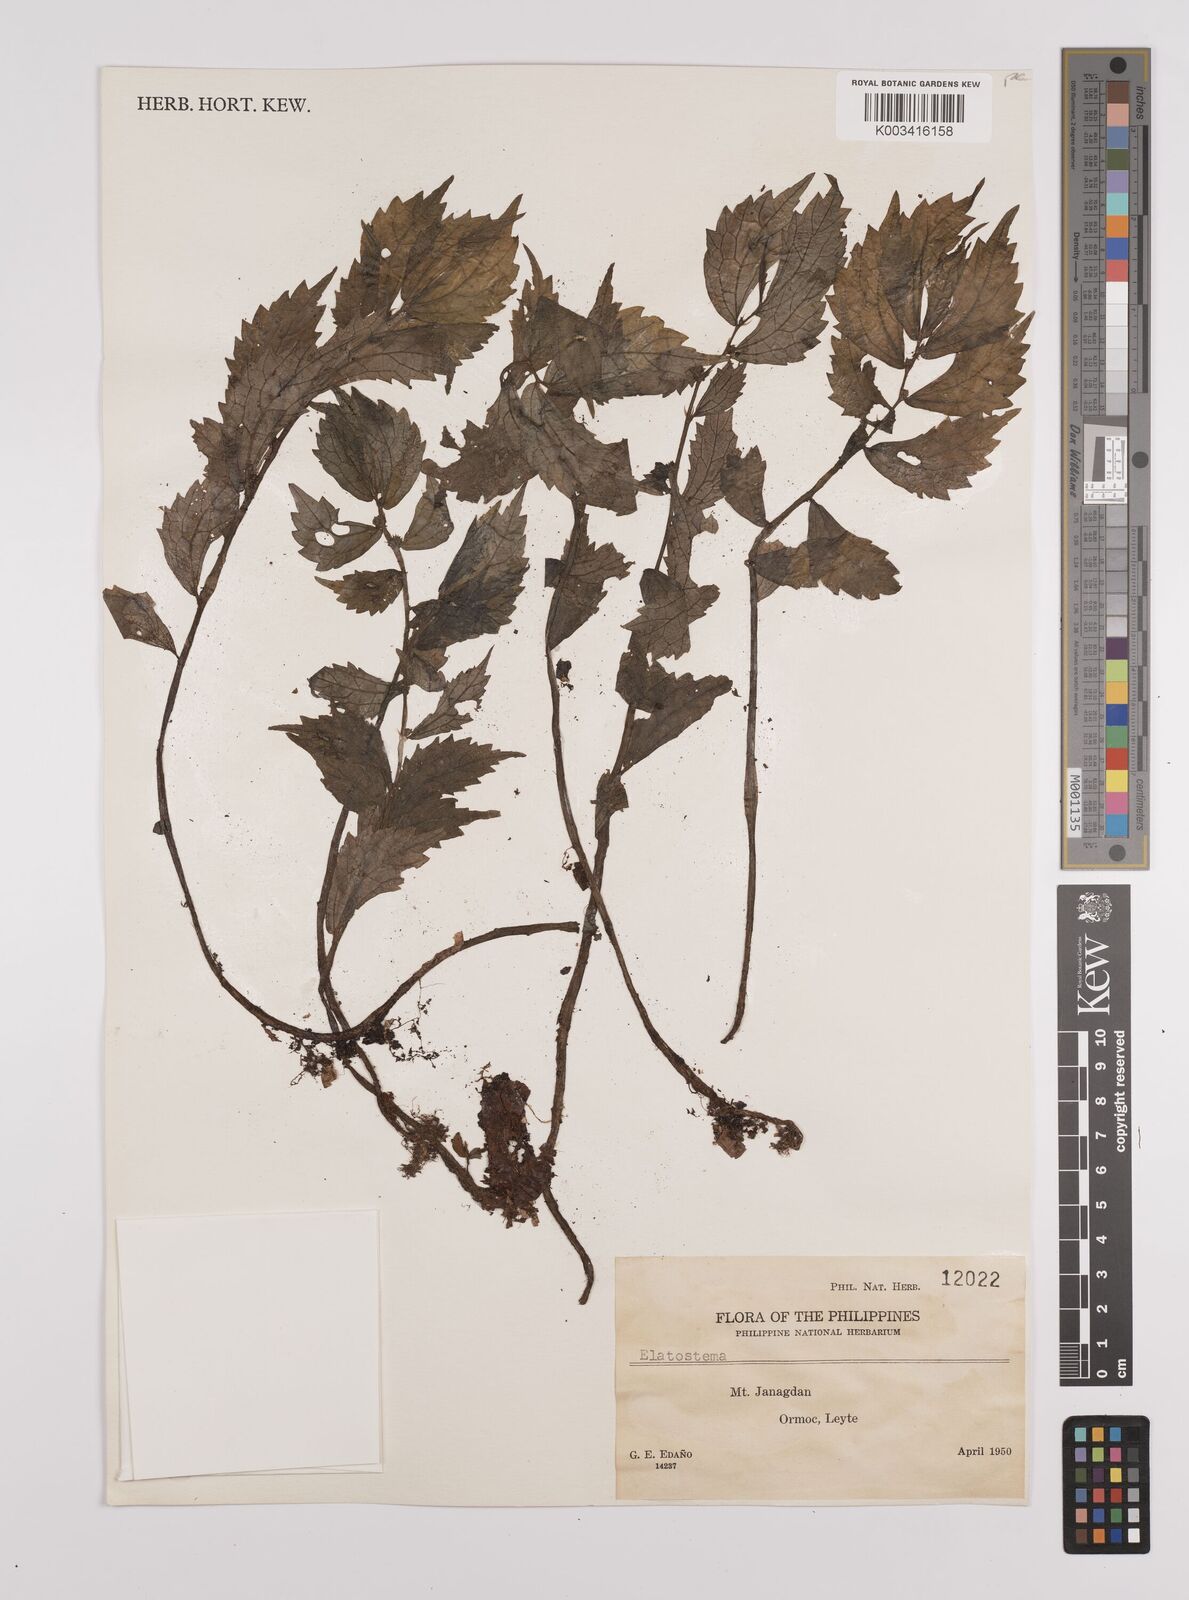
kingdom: Plantae
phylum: Tracheophyta
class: Magnoliopsida
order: Rosales
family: Urticaceae
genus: Elatostema
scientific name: Elatostema
